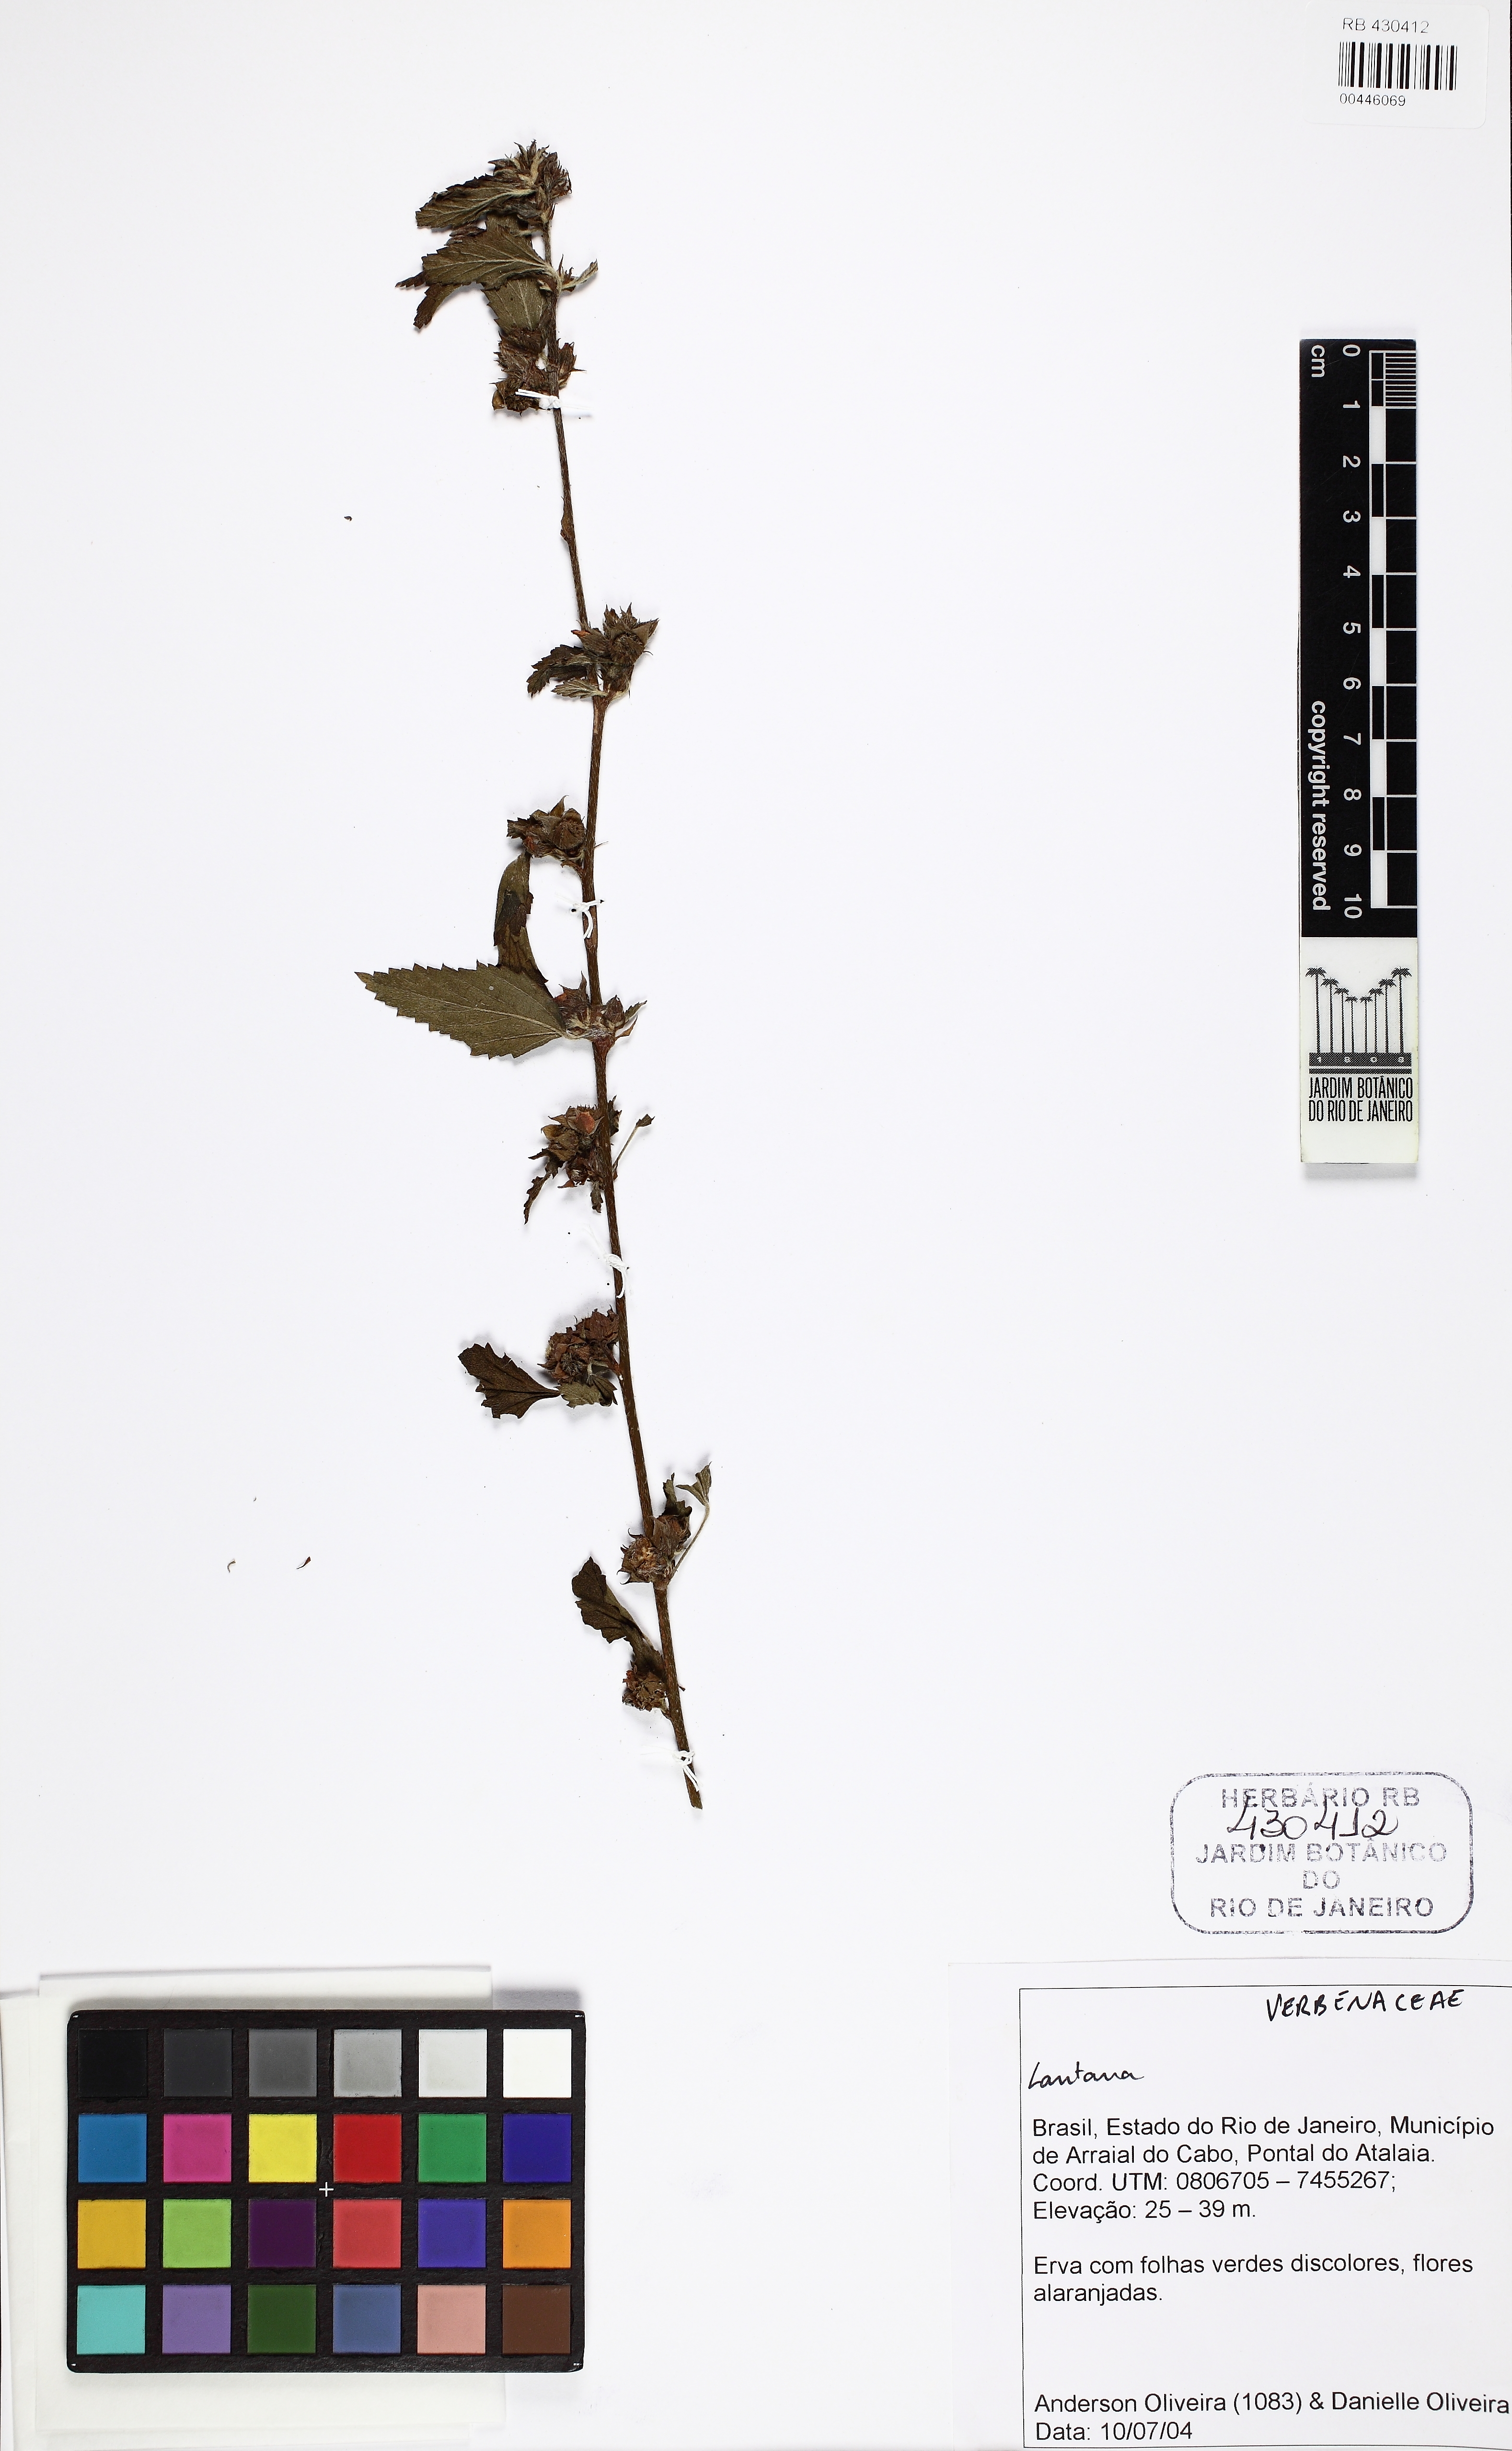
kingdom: Plantae
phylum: Tracheophyta
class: Magnoliopsida
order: Lamiales
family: Verbenaceae
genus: Lantana
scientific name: Lantana
